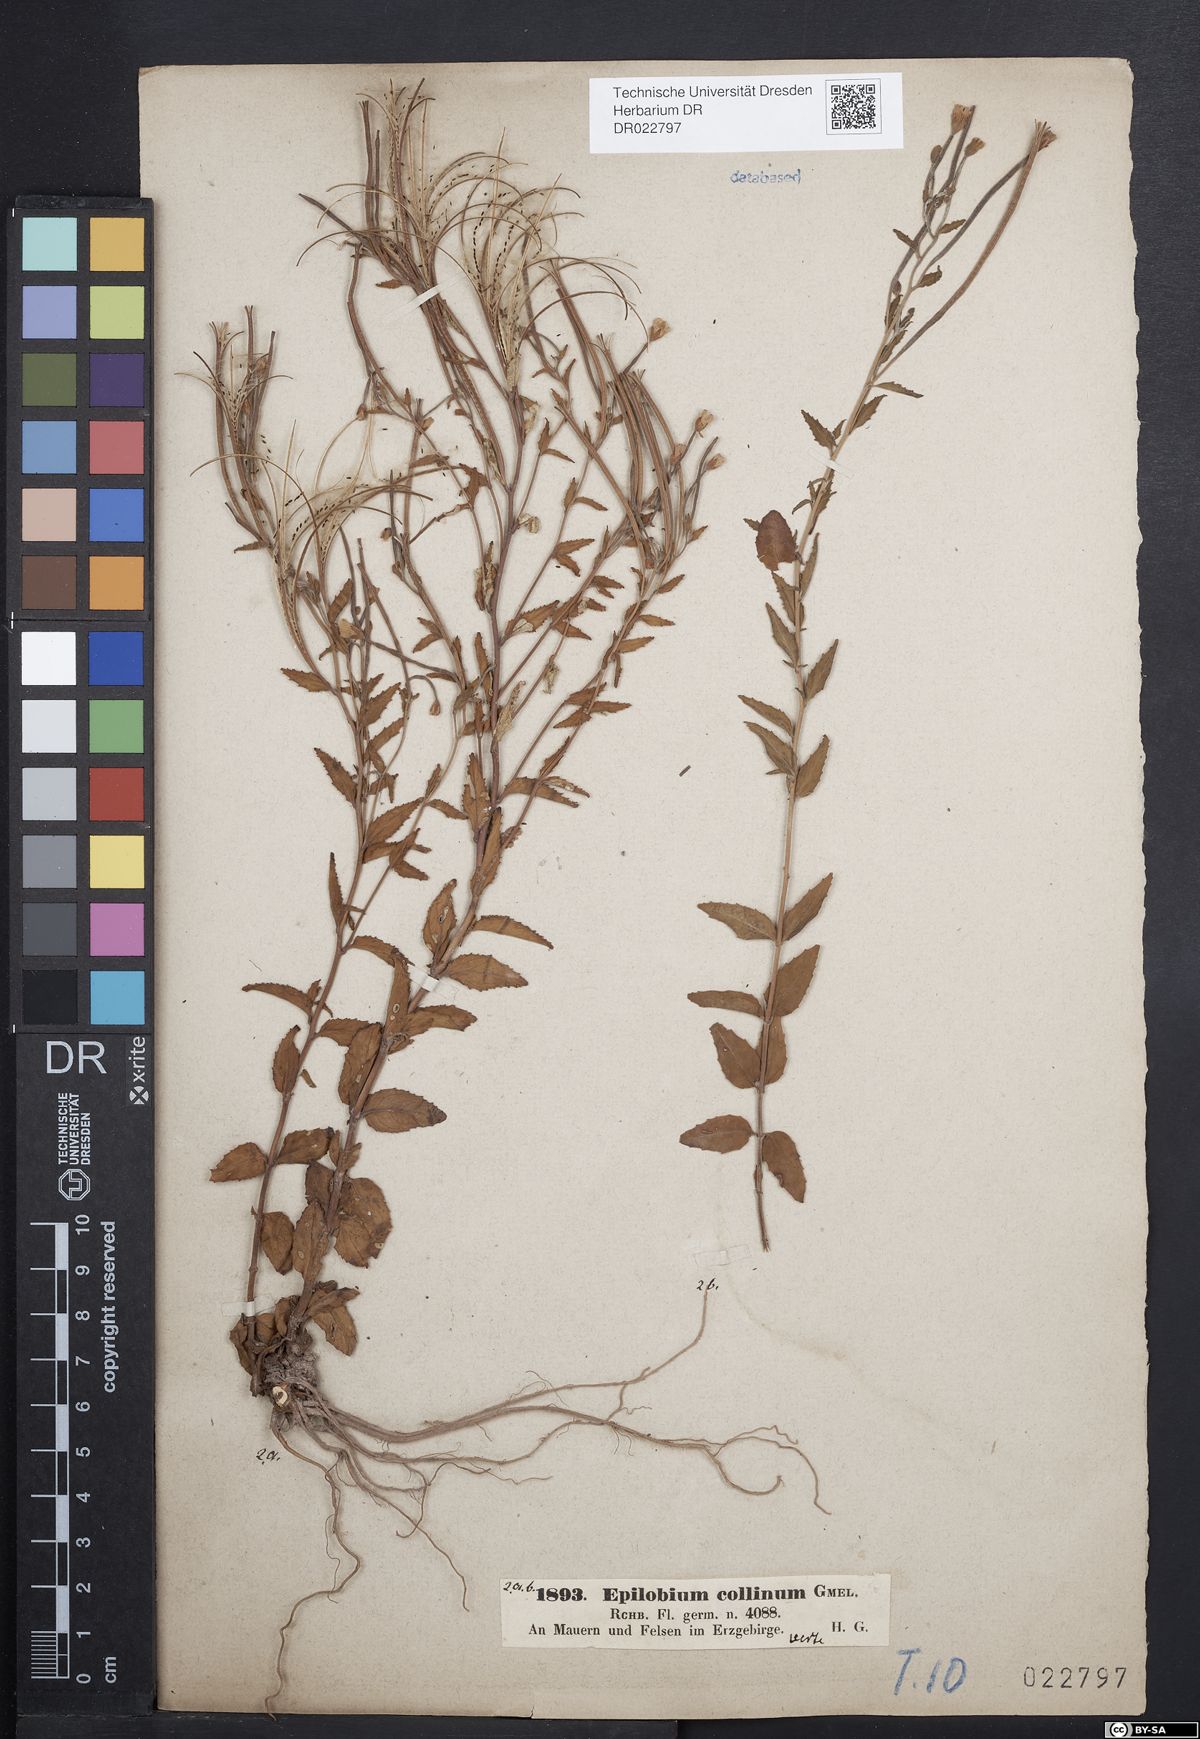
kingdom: Plantae
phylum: Tracheophyta
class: Magnoliopsida
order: Myrtales
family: Onagraceae
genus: Epilobium
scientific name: Epilobium collinum
